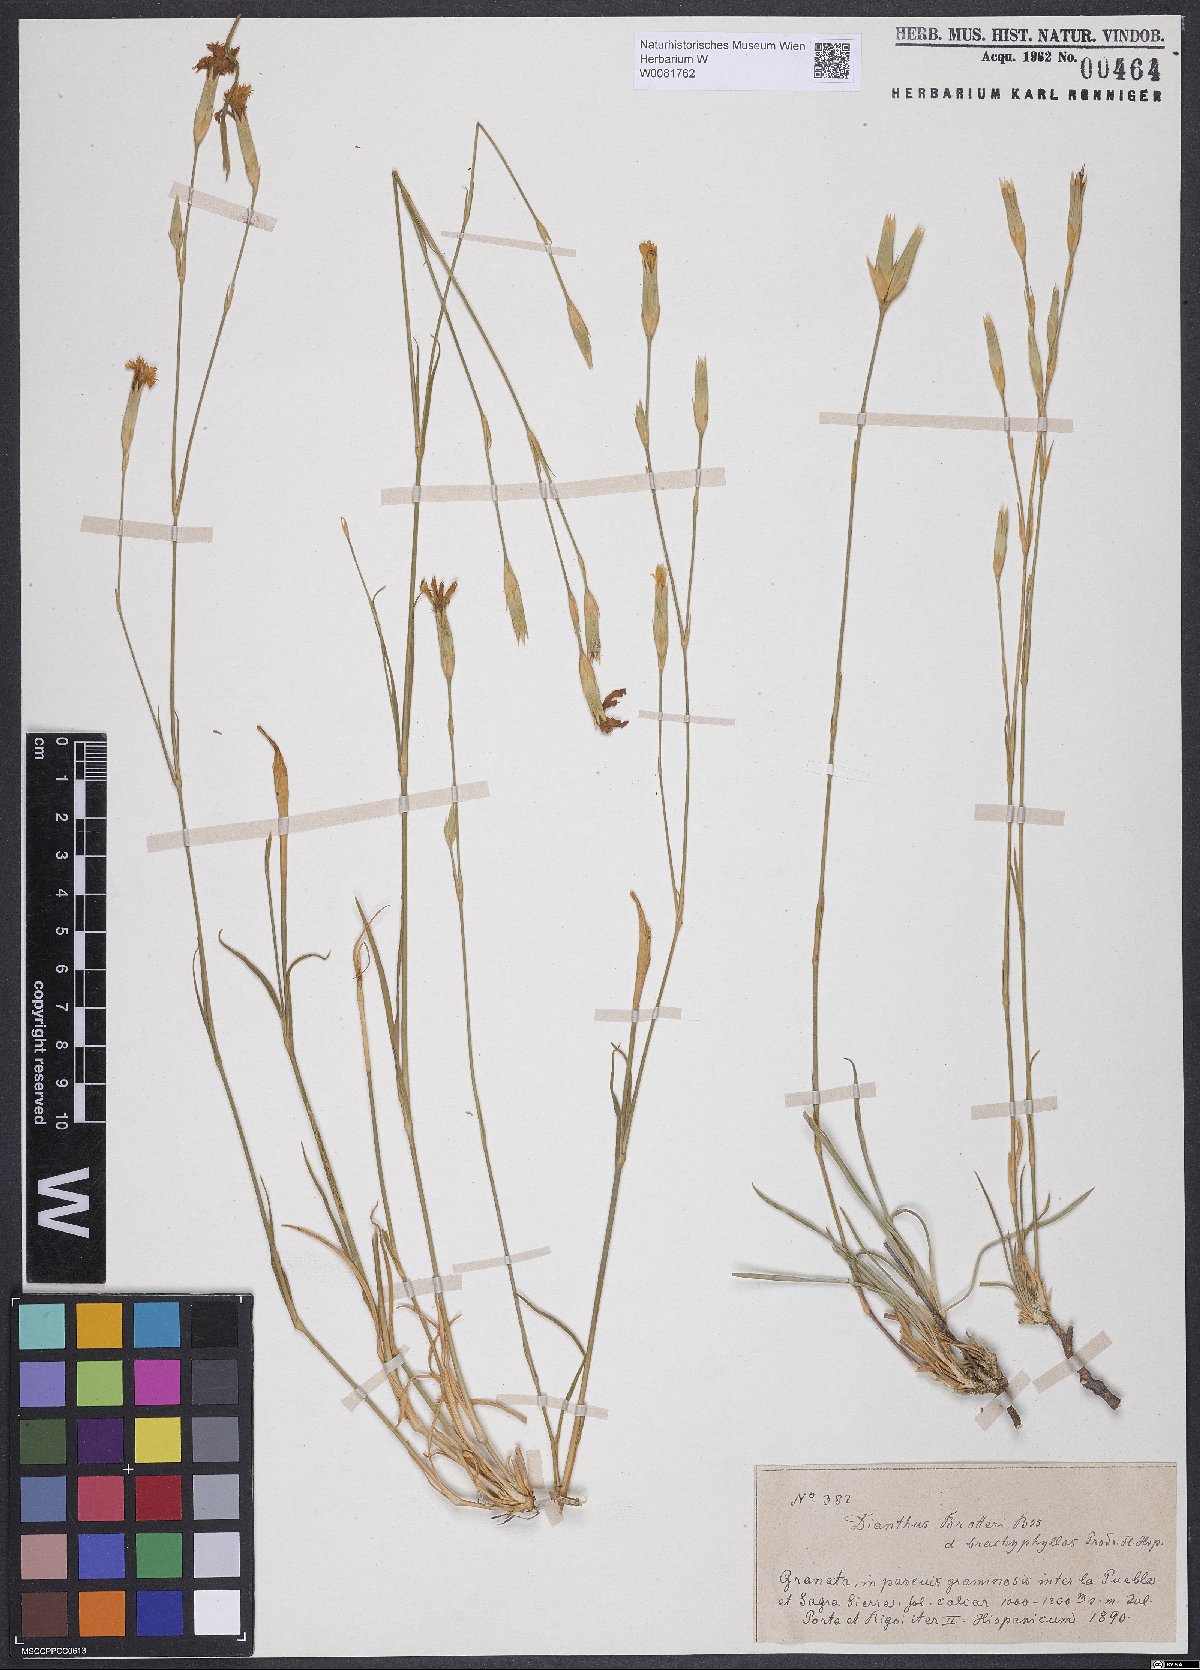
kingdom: Plantae
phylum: Tracheophyta
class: Magnoliopsida
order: Caryophyllales
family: Caryophyllaceae
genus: Dianthus
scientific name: Dianthus broteri
